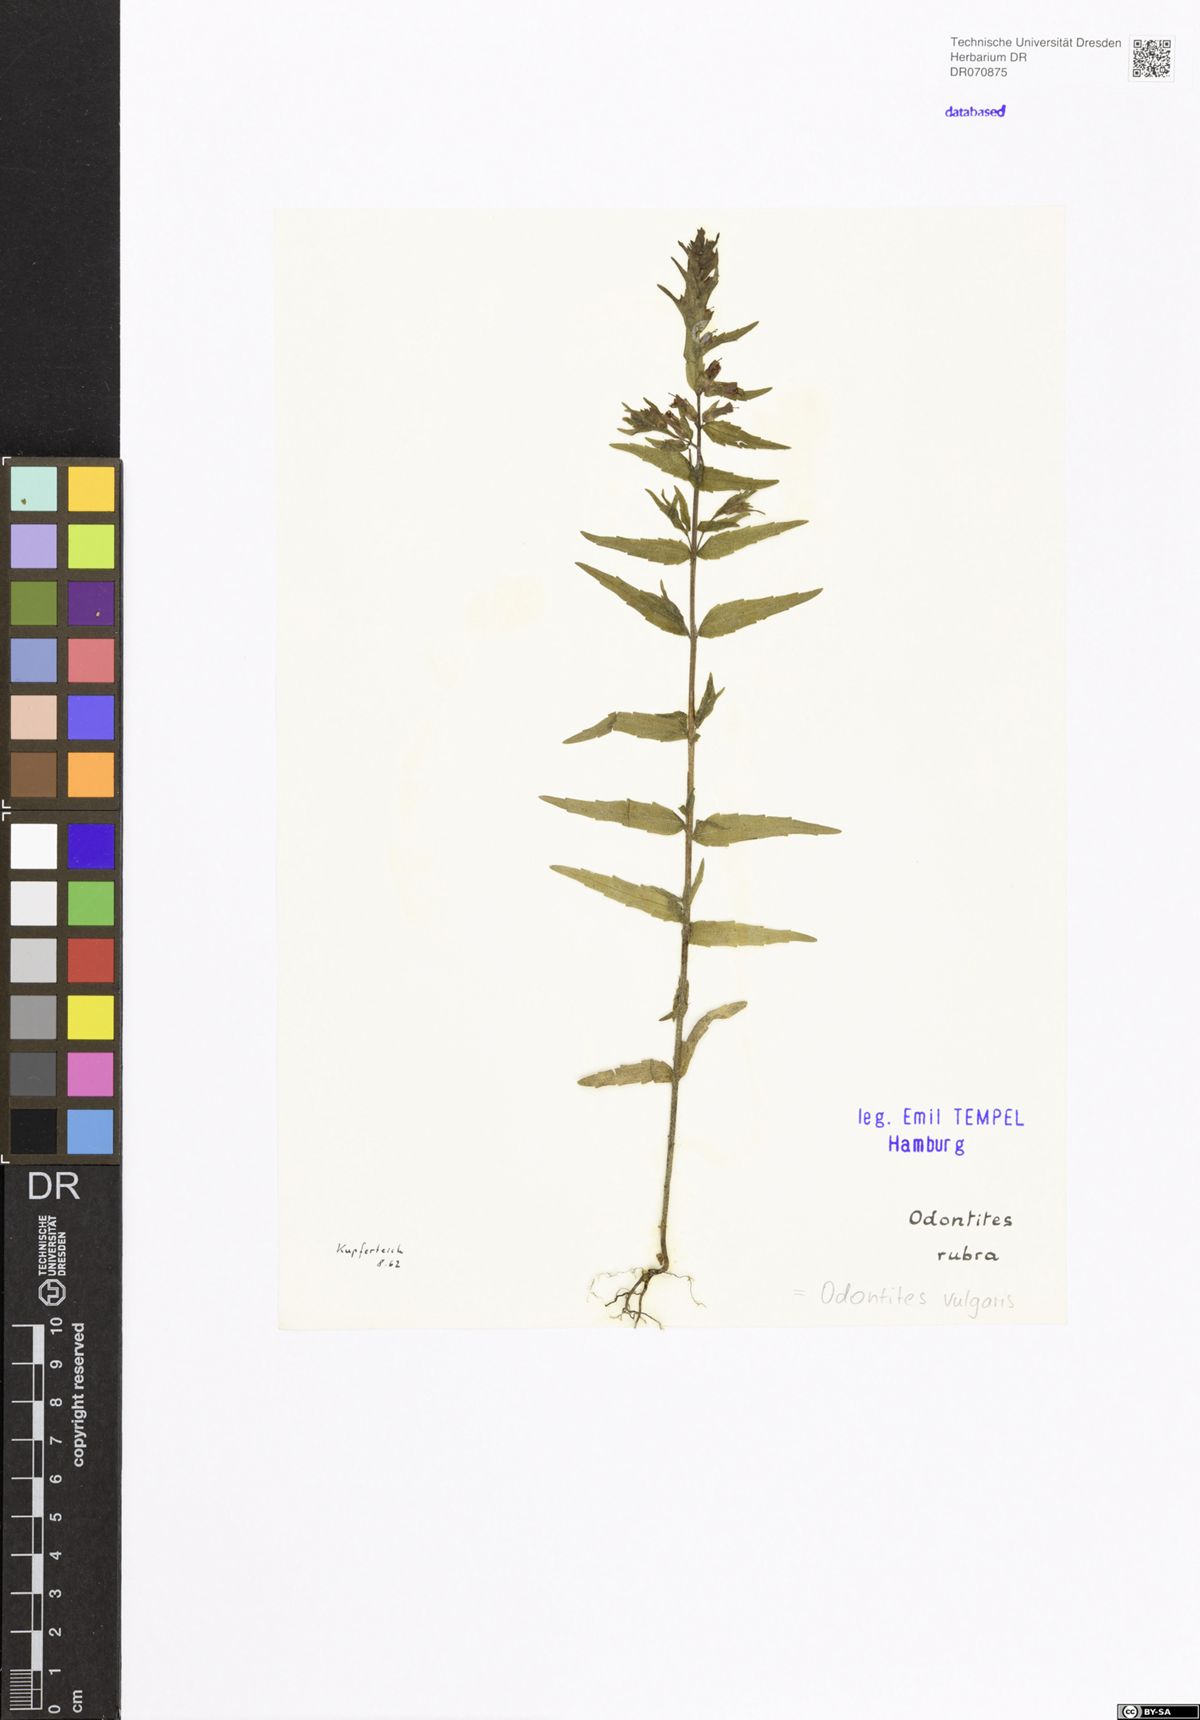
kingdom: Plantae
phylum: Tracheophyta
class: Magnoliopsida
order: Lamiales
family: Orobanchaceae
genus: Odontites
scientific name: Odontites vulgaris
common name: Broomrape
